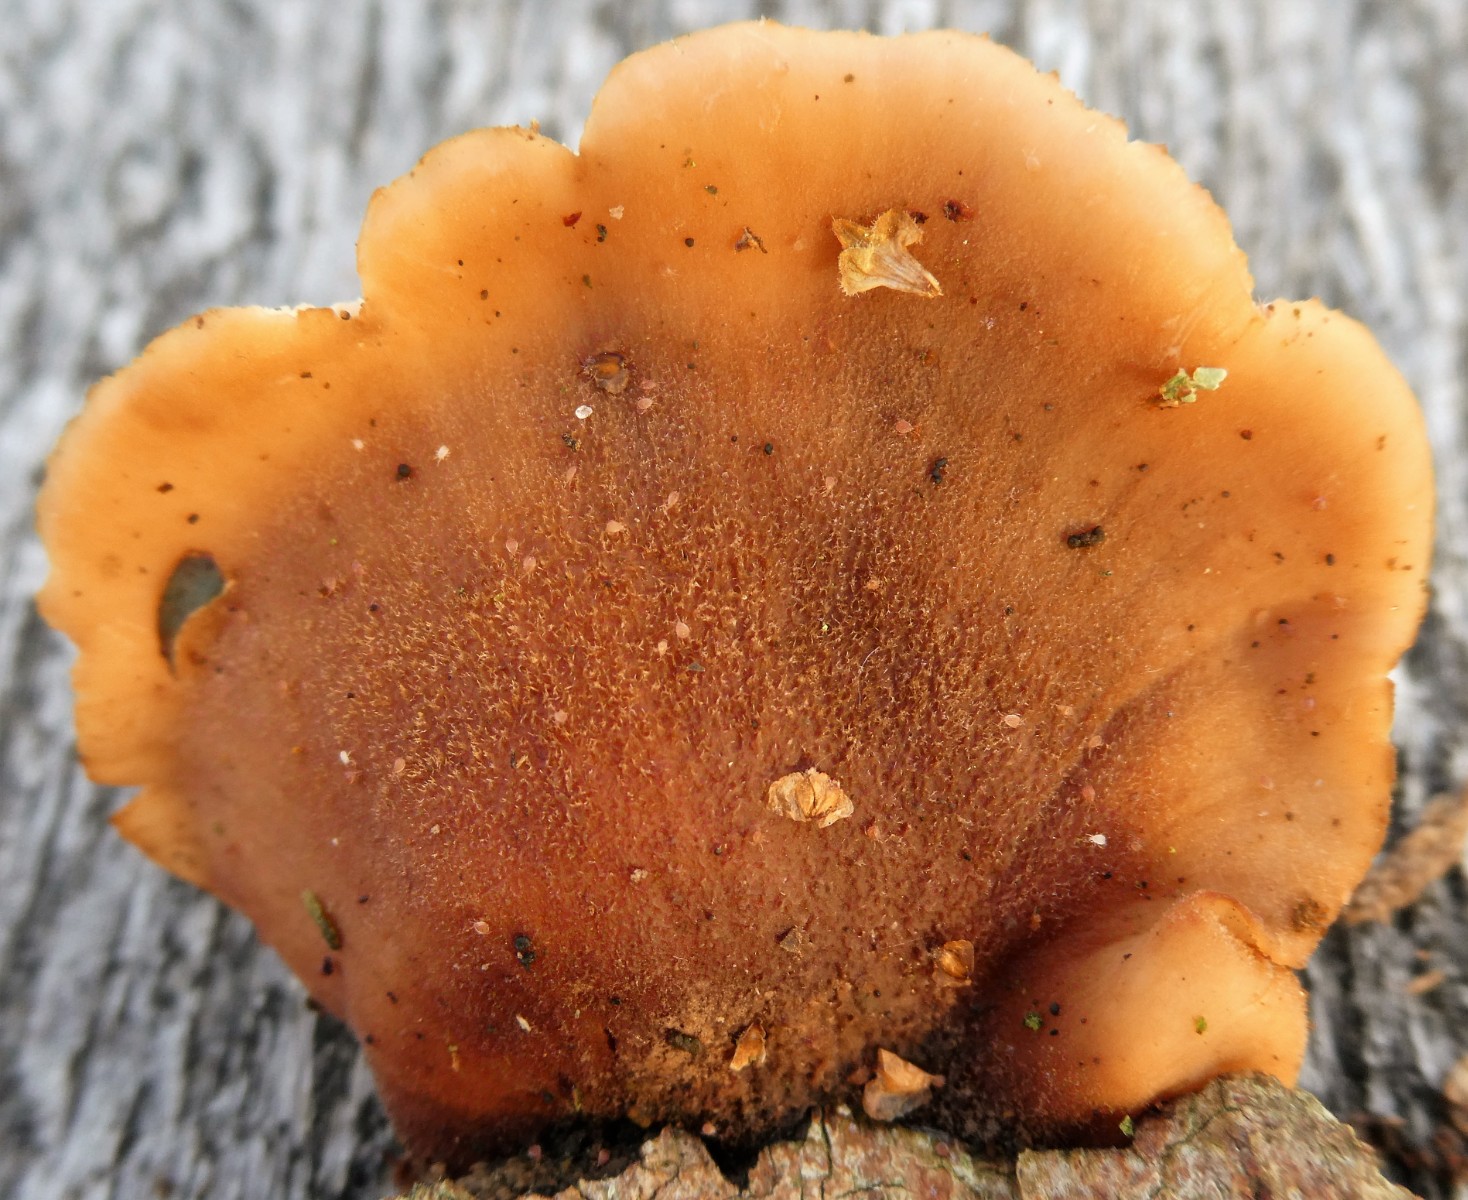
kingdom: Fungi
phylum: Basidiomycota
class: Agaricomycetes
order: Russulales
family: Auriscalpiaceae
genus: Lentinellus
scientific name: Lentinellus
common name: savbladhat
